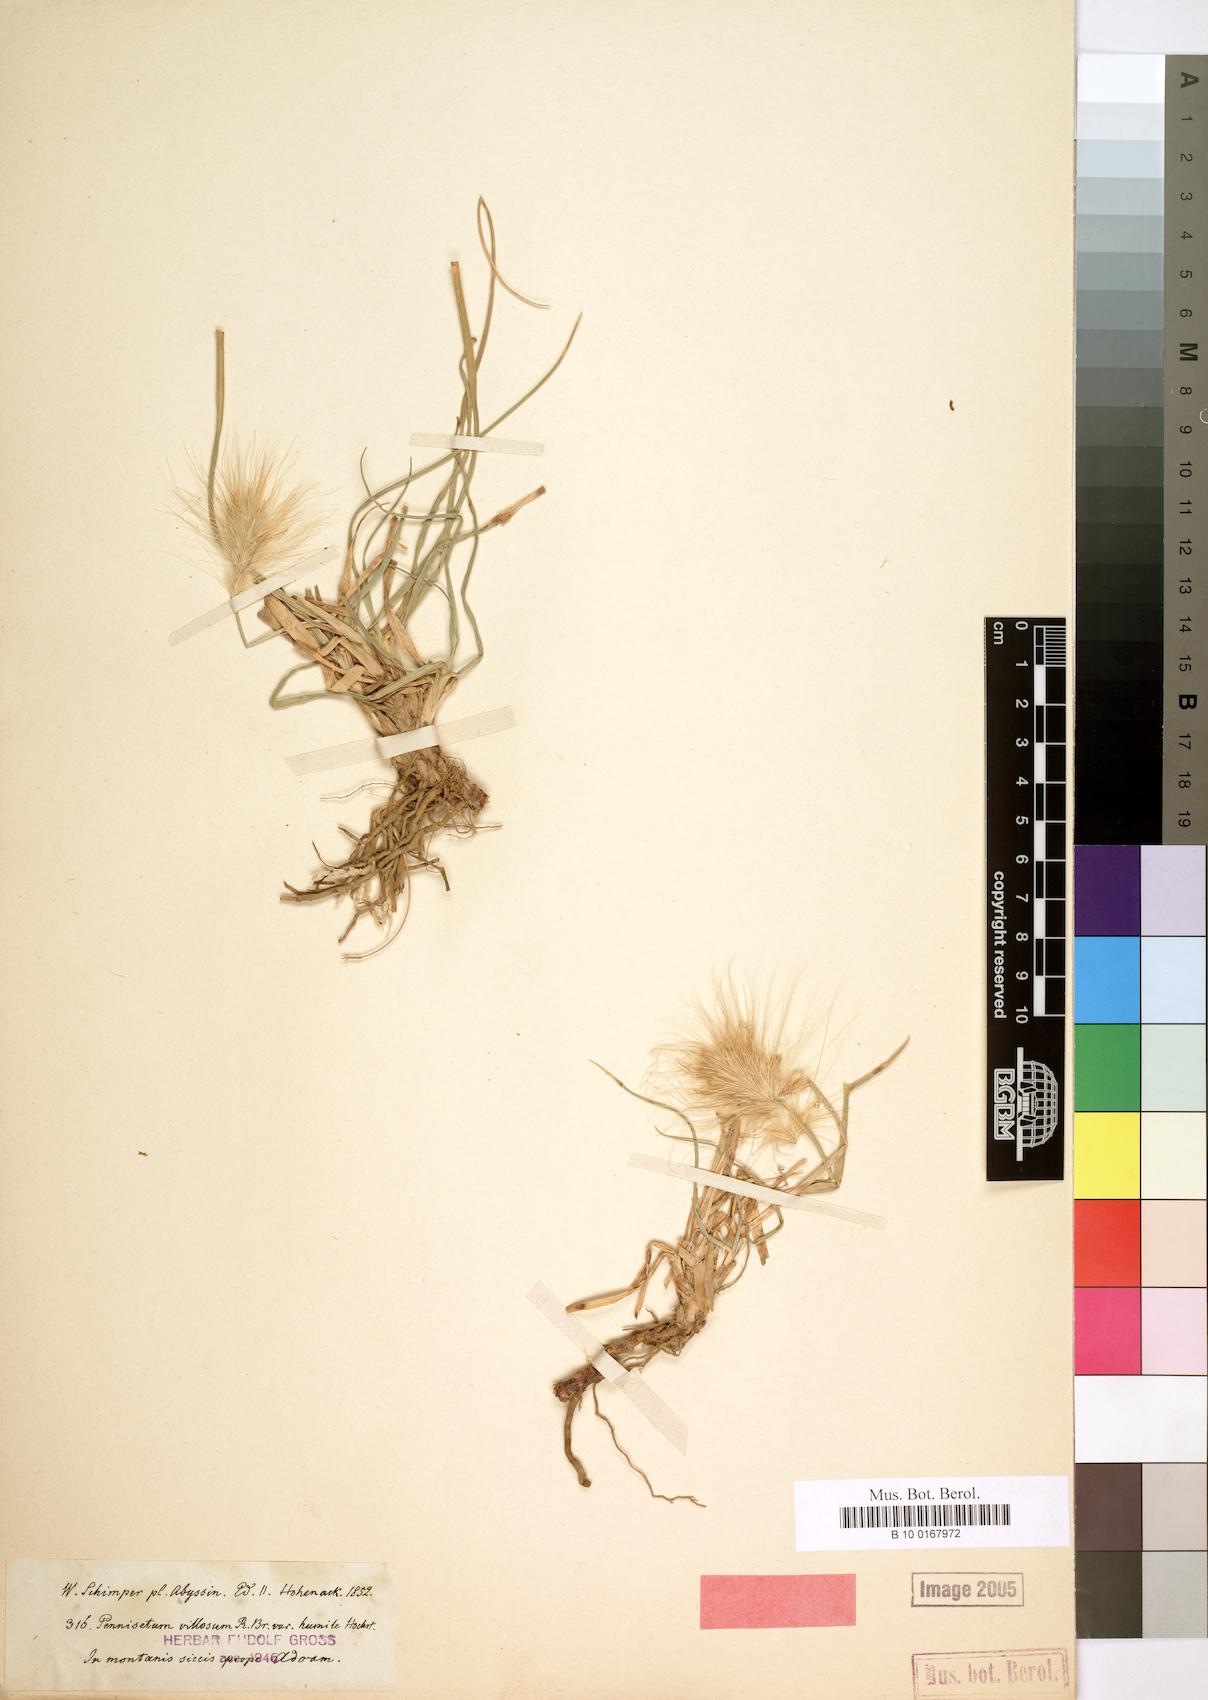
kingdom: Plantae
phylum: Tracheophyta
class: Liliopsida
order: Poales
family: Poaceae
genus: Cenchrus
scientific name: Cenchrus longisetus
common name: Feathertop
